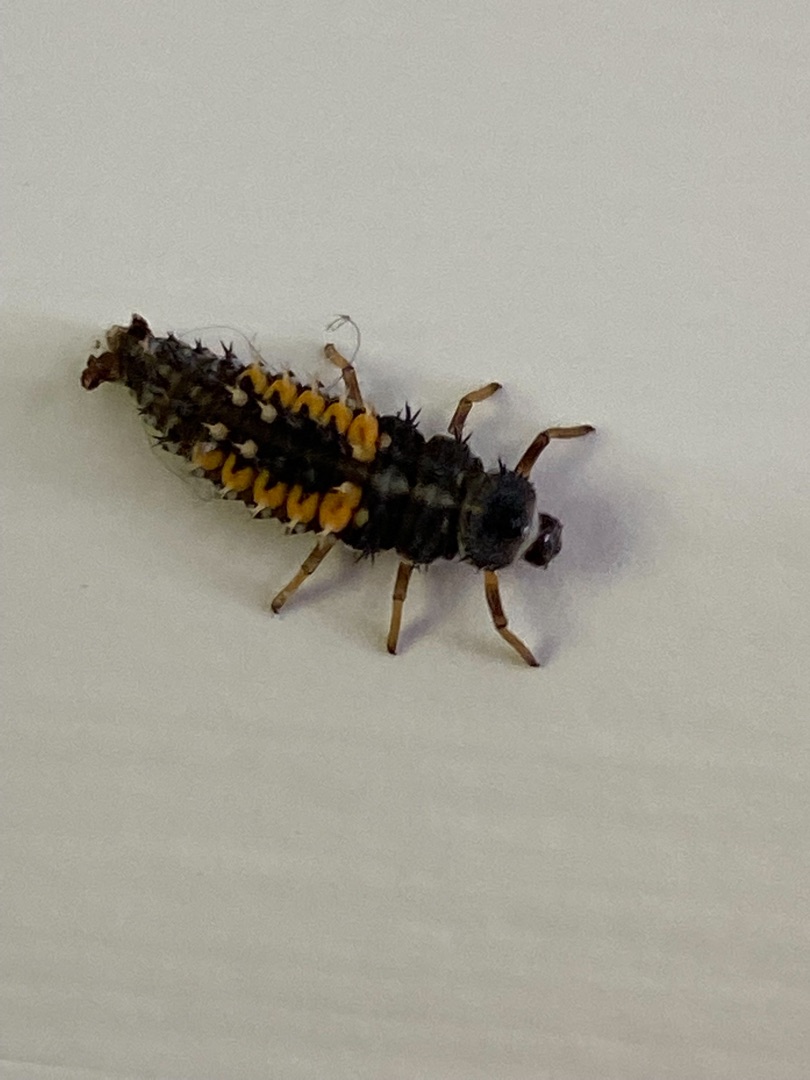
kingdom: Animalia
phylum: Arthropoda
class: Insecta
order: Coleoptera
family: Coccinellidae
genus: Harmonia
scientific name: Harmonia axyridis
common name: Harlekinmariehøne
